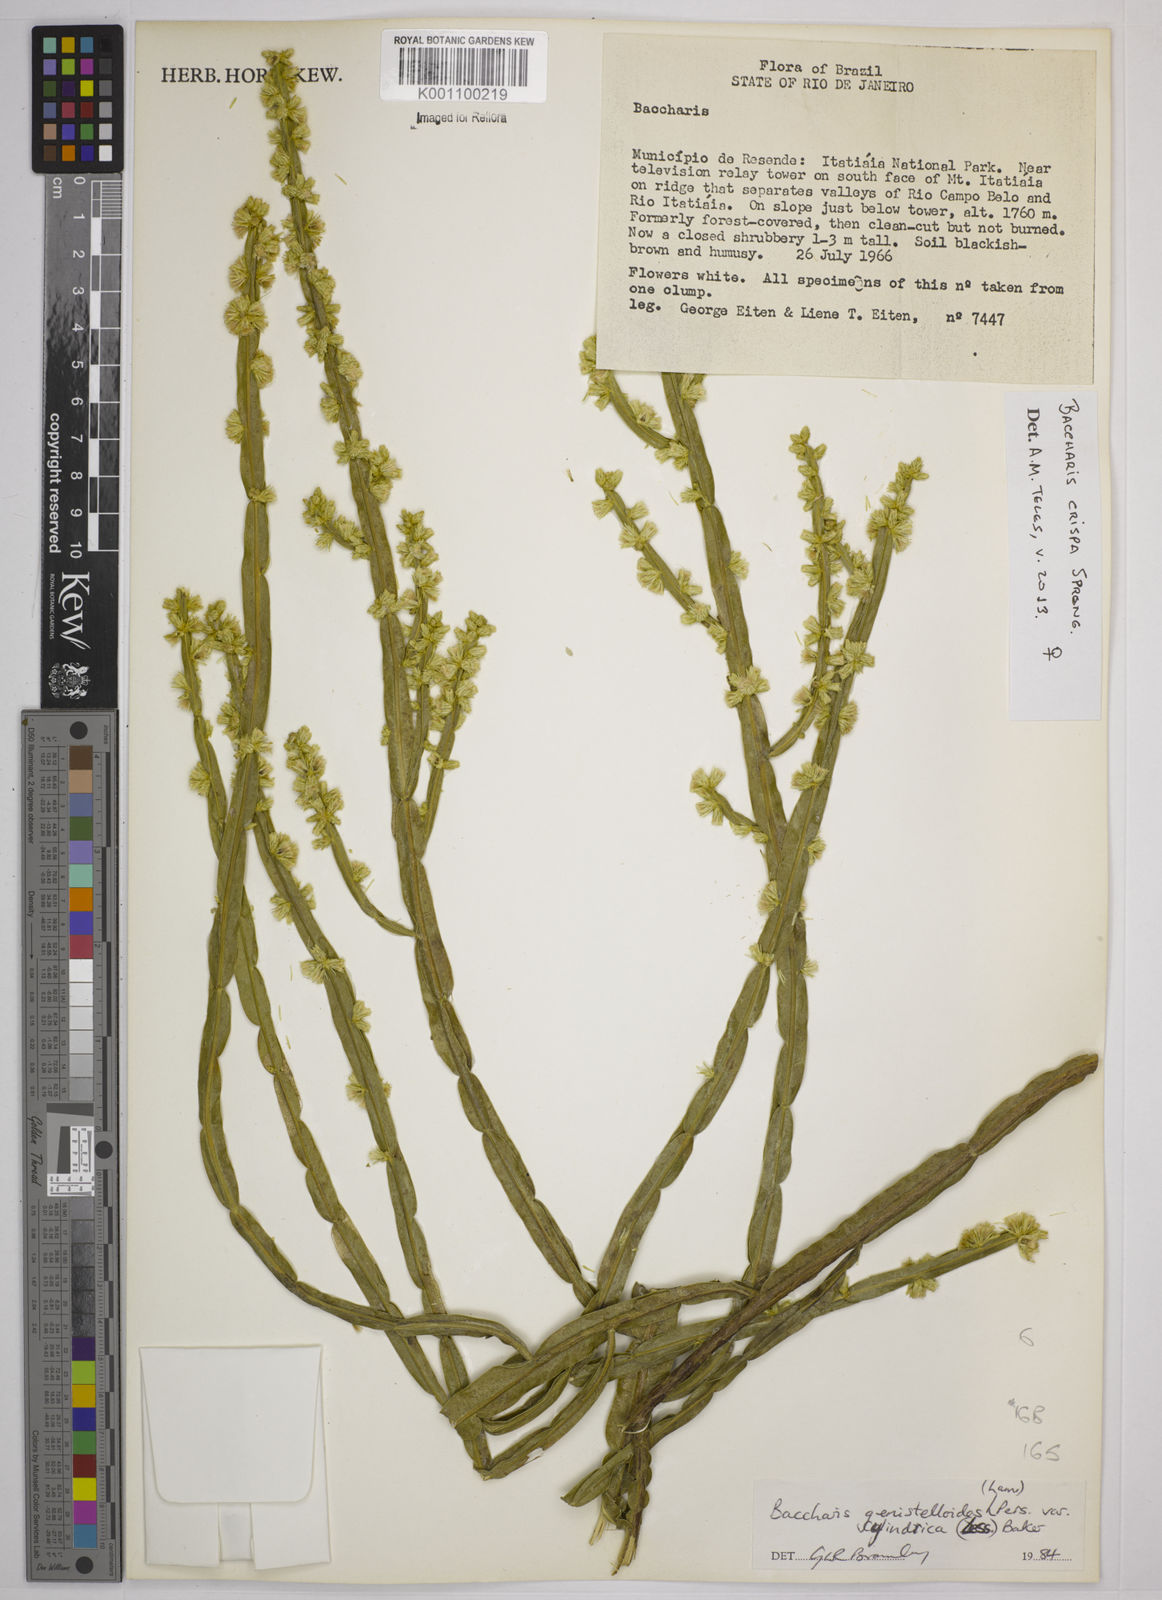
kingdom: Plantae
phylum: Tracheophyta
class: Magnoliopsida
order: Asterales
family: Asteraceae
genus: Baccharis
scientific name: Baccharis
